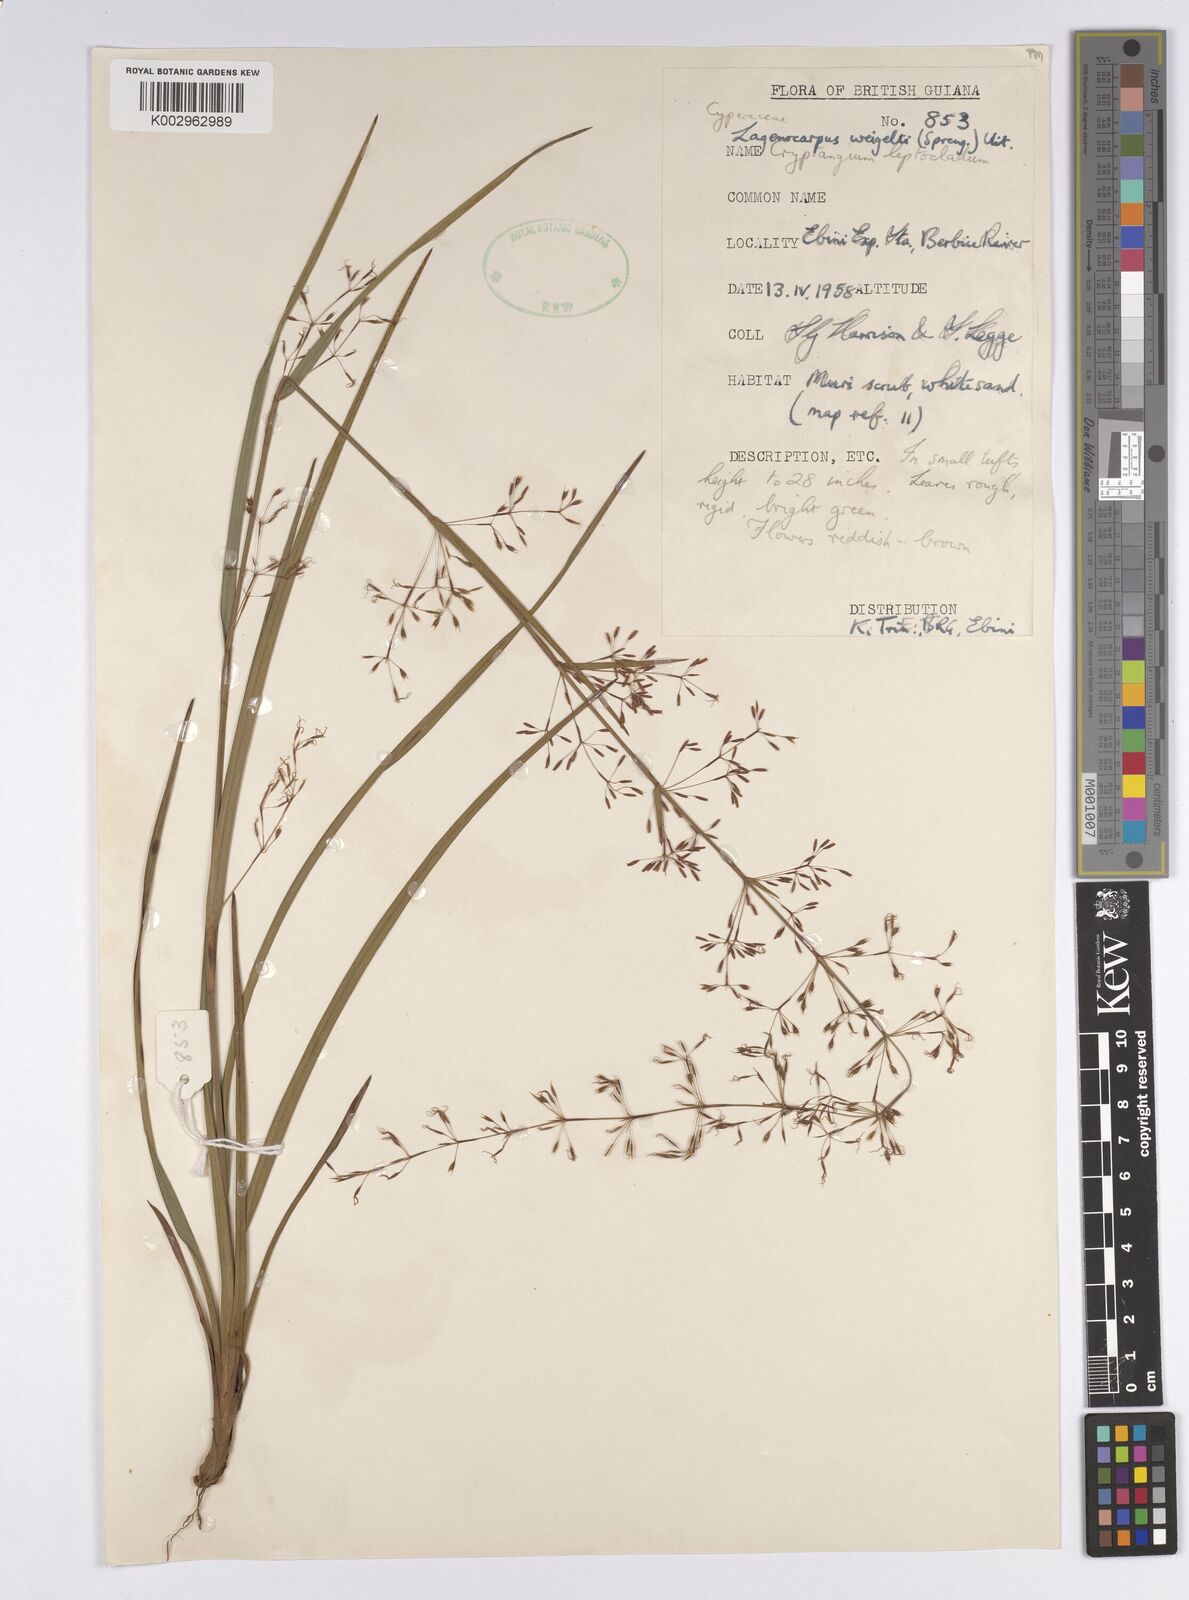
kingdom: Plantae
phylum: Tracheophyta
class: Liliopsida
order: Poales
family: Cyperaceae
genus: Cryptangium
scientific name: Cryptangium verticillatum
